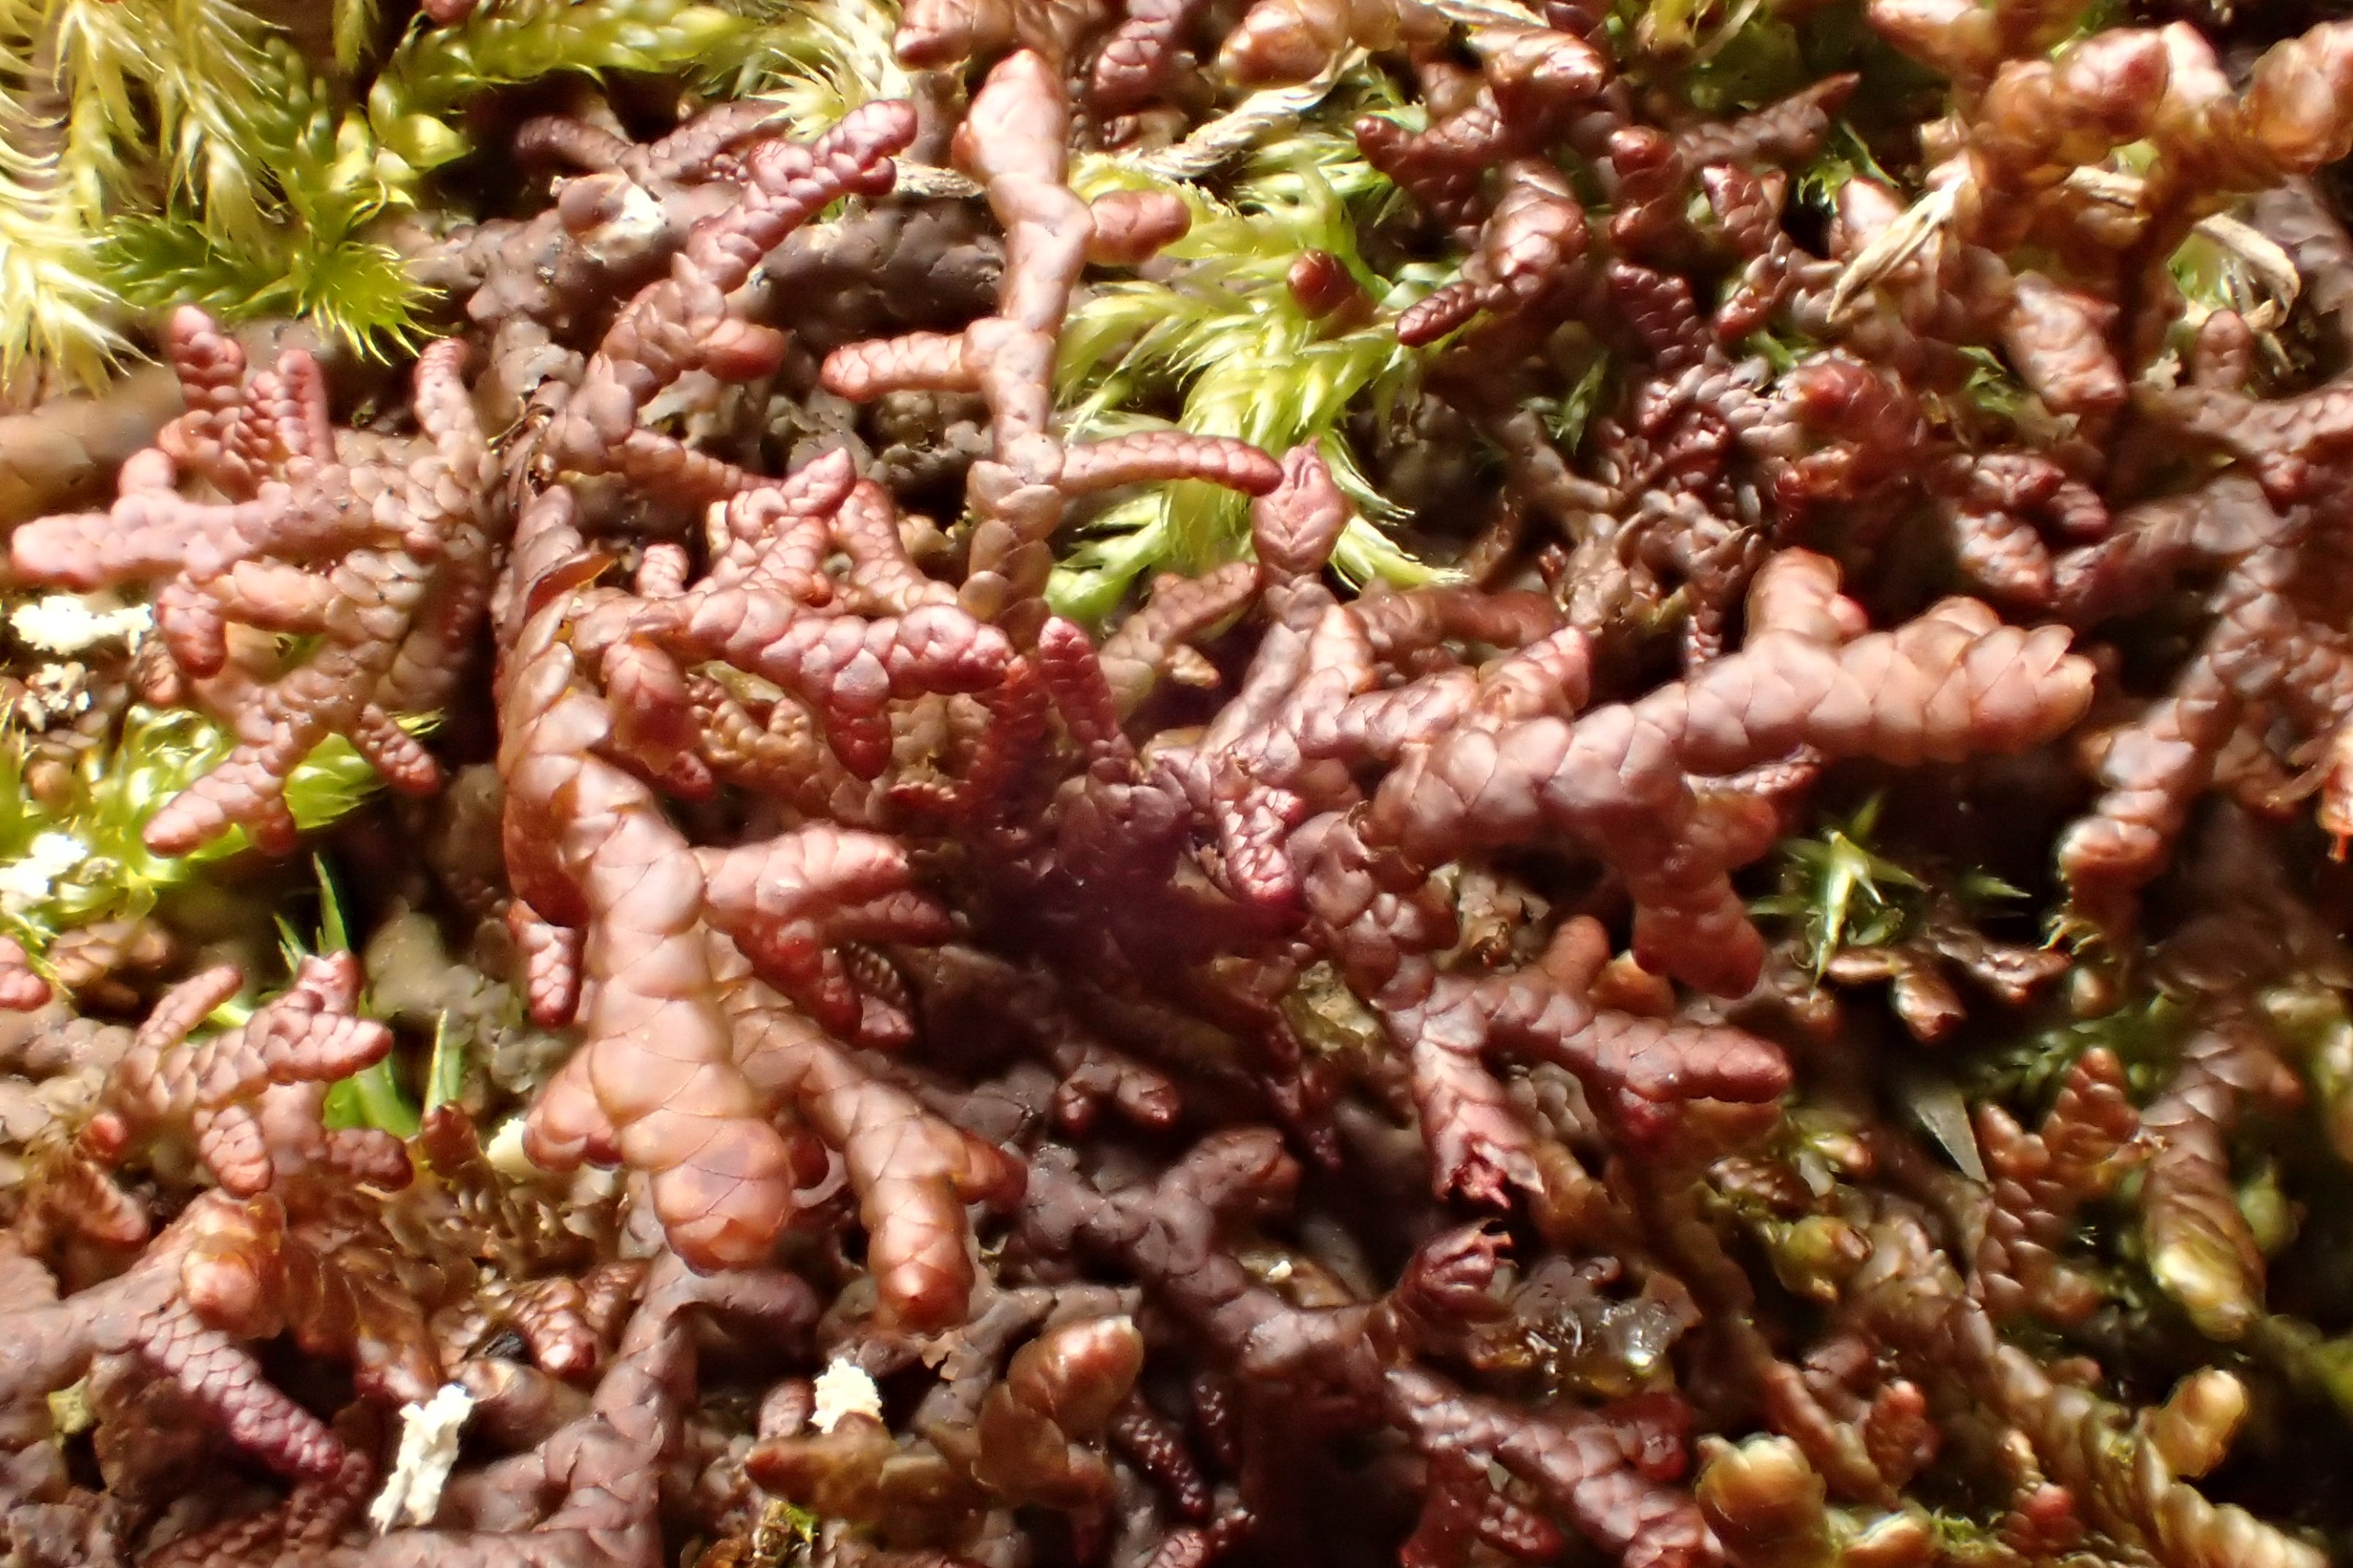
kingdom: Plantae
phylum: Marchantiophyta
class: Jungermanniopsida
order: Porellales
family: Frullaniaceae
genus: Frullania
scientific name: Frullania tamarisci
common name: Glinsende bronzemos
